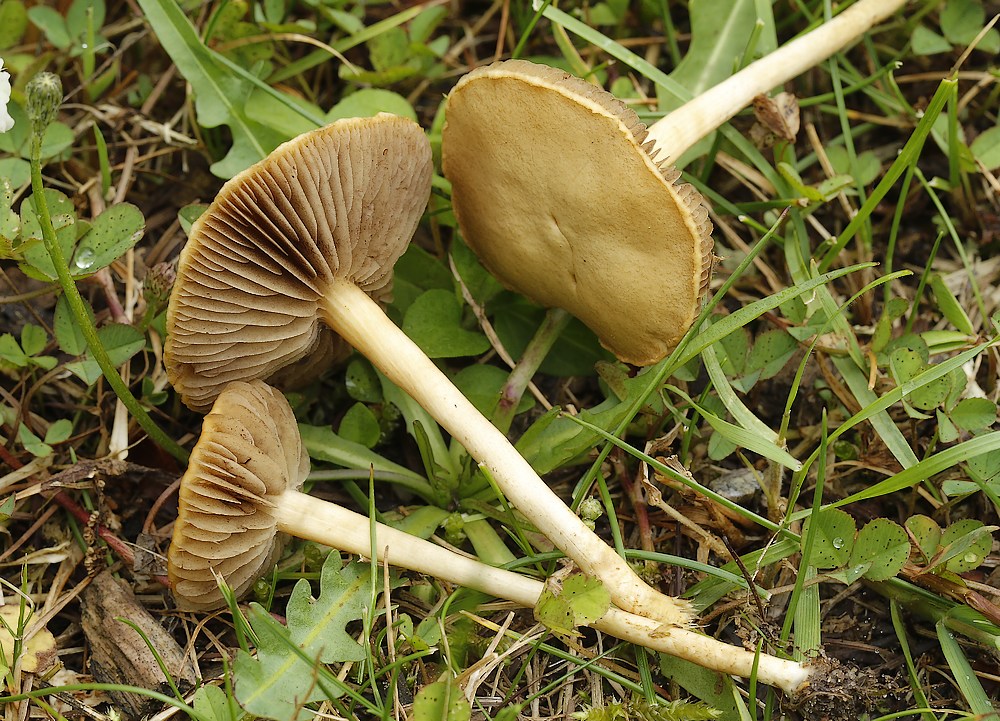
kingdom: Fungi
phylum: Basidiomycota
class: Agaricomycetes
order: Agaricales
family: Strophariaceae
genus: Agrocybe
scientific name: Agrocybe pediades
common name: almindelig agerhat
